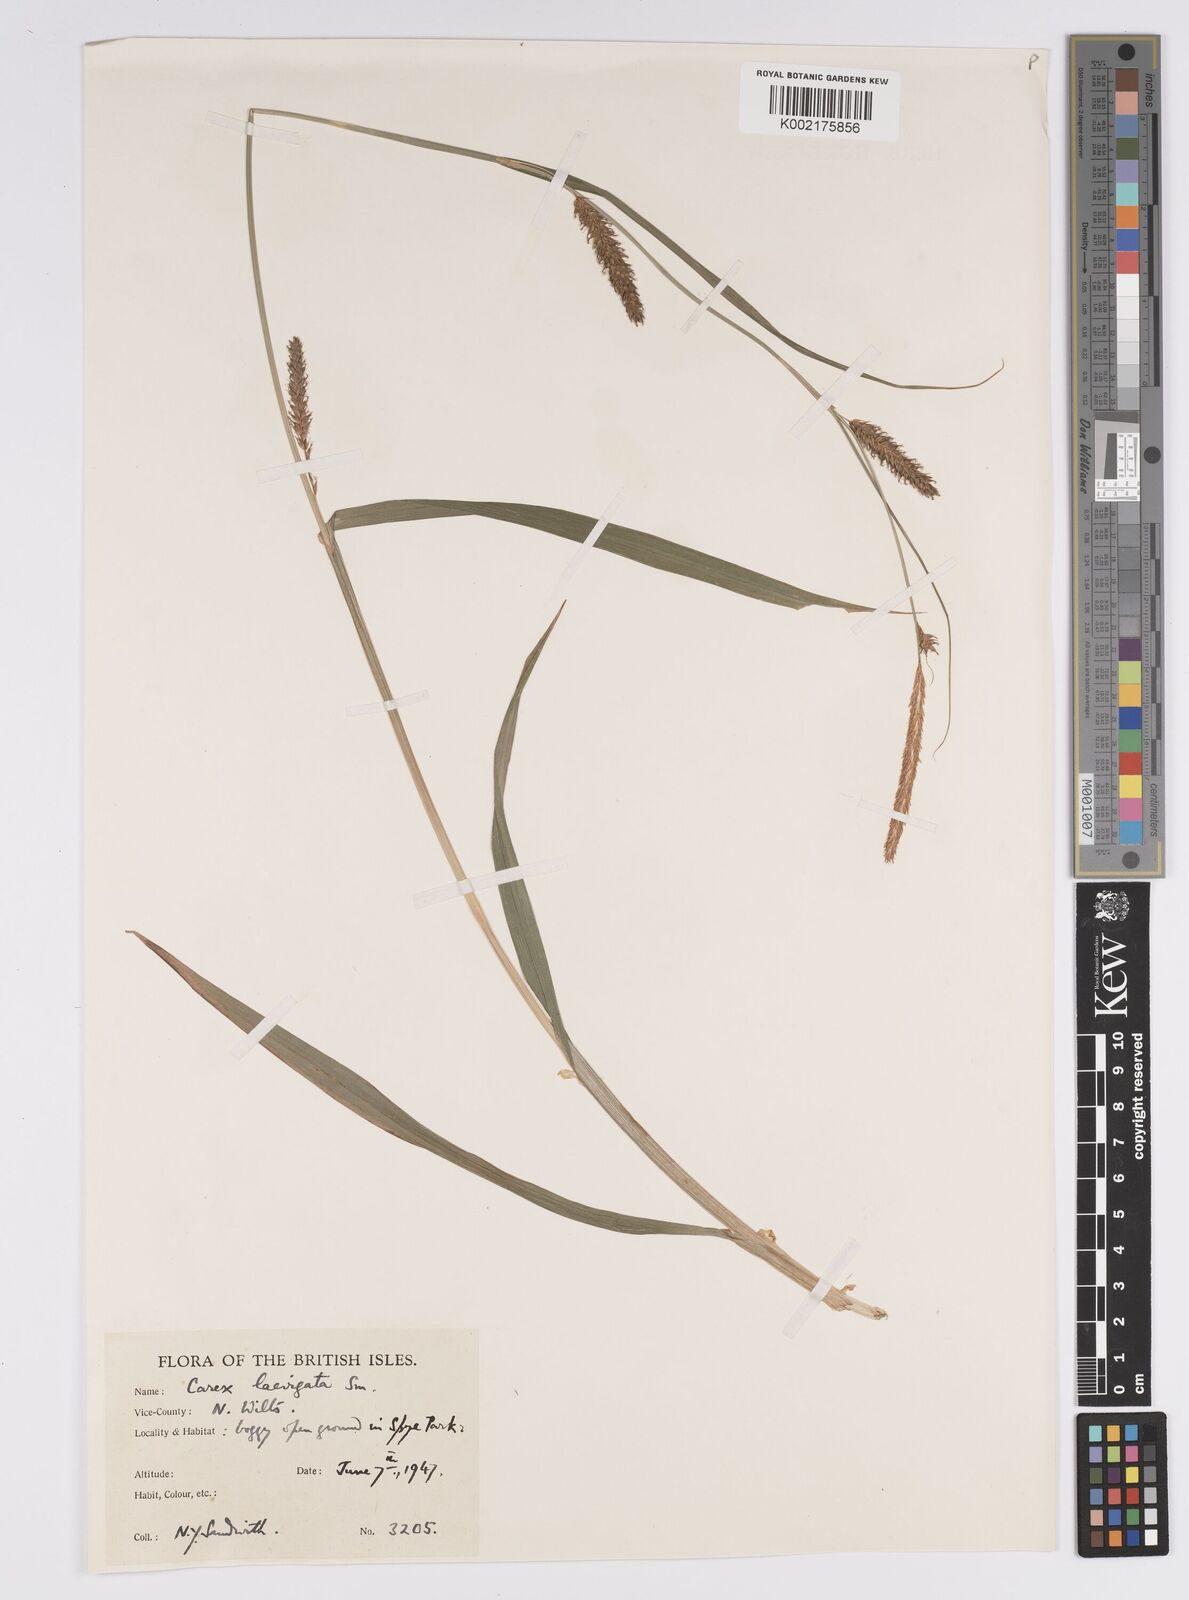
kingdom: Plantae
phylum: Tracheophyta
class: Liliopsida
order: Poales
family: Cyperaceae
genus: Carex
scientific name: Carex laevigata
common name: Smooth-stalked sedge
